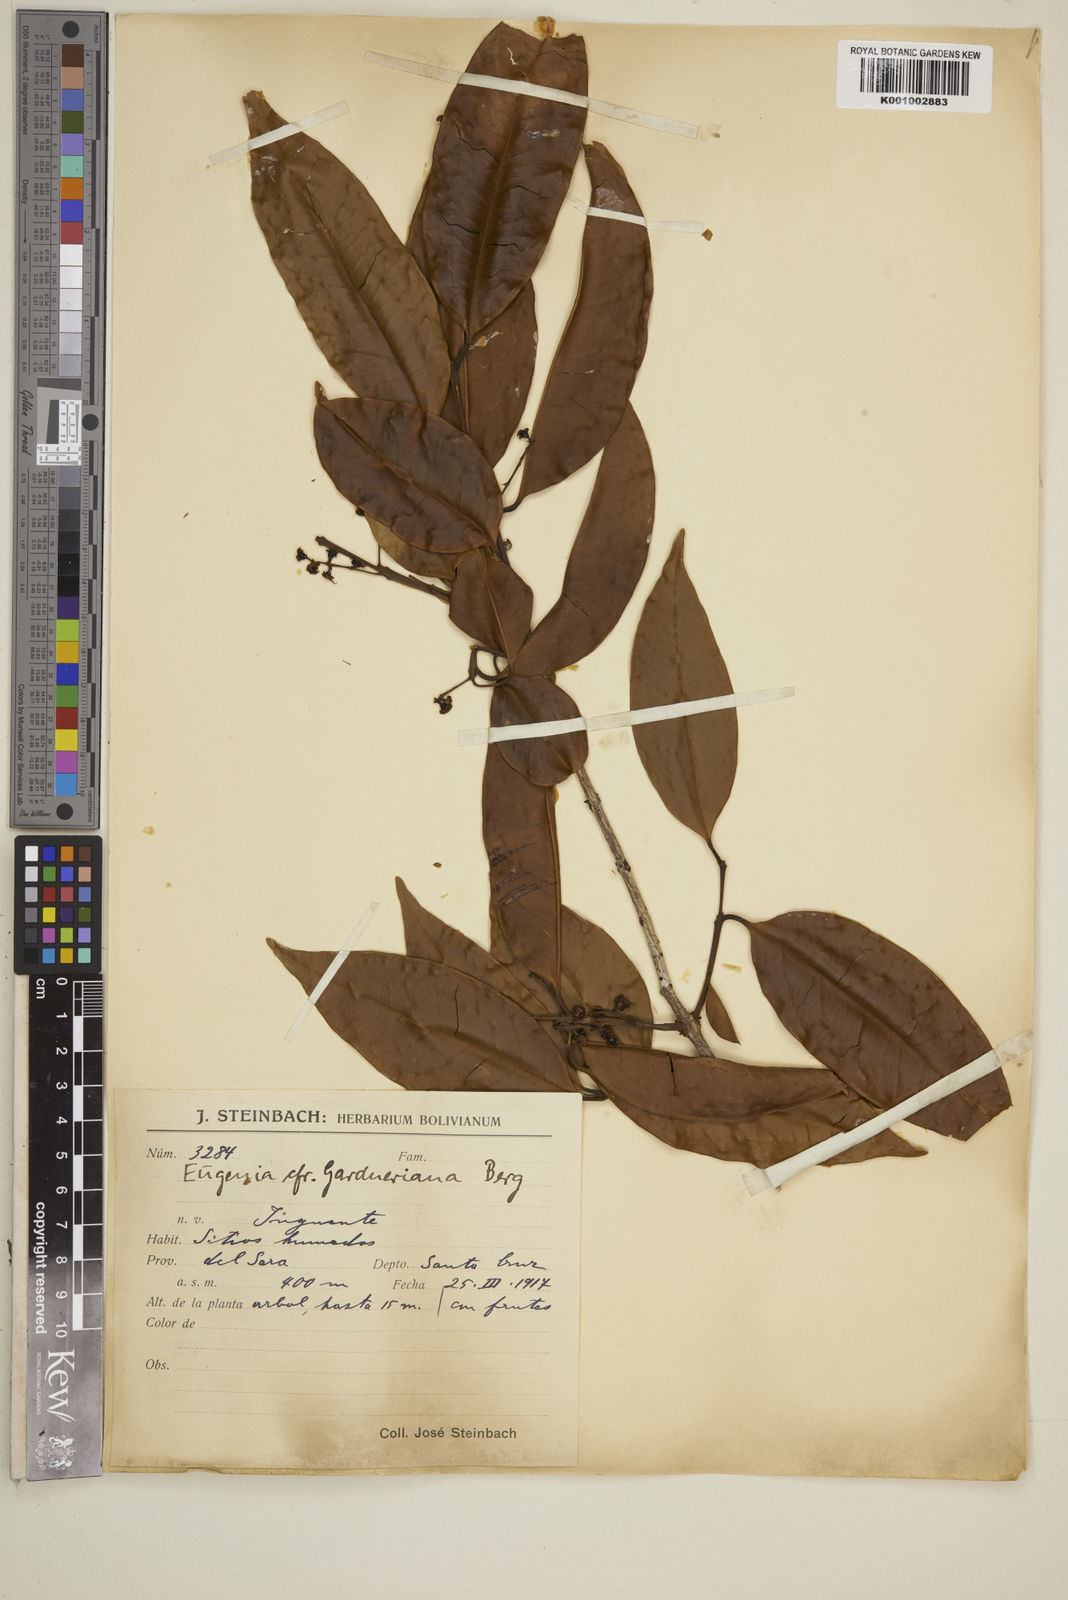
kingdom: Plantae
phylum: Tracheophyta
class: Magnoliopsida
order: Myrtales
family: Myrtaceae
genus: Eugenia
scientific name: Eugenia florida
